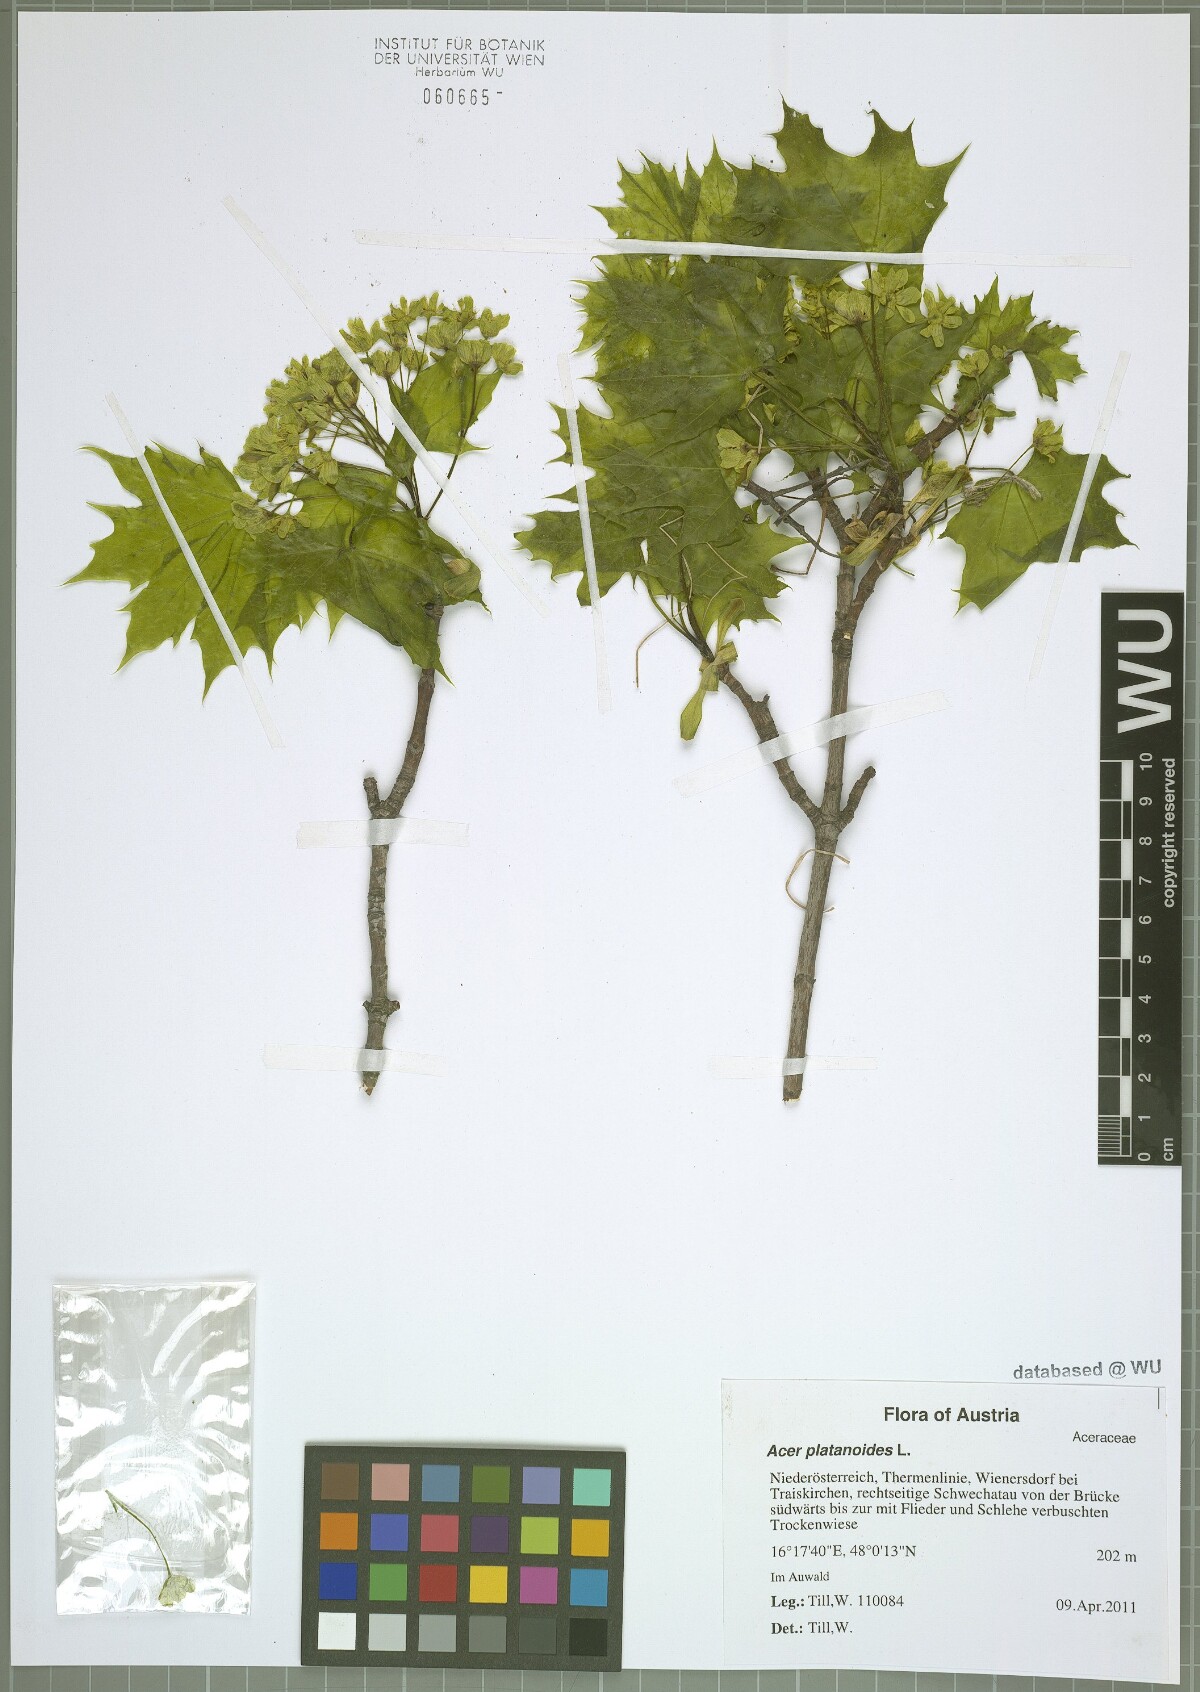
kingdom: Plantae
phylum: Tracheophyta
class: Magnoliopsida
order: Sapindales
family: Sapindaceae
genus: Acer
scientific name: Acer platanoides
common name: Norway maple
